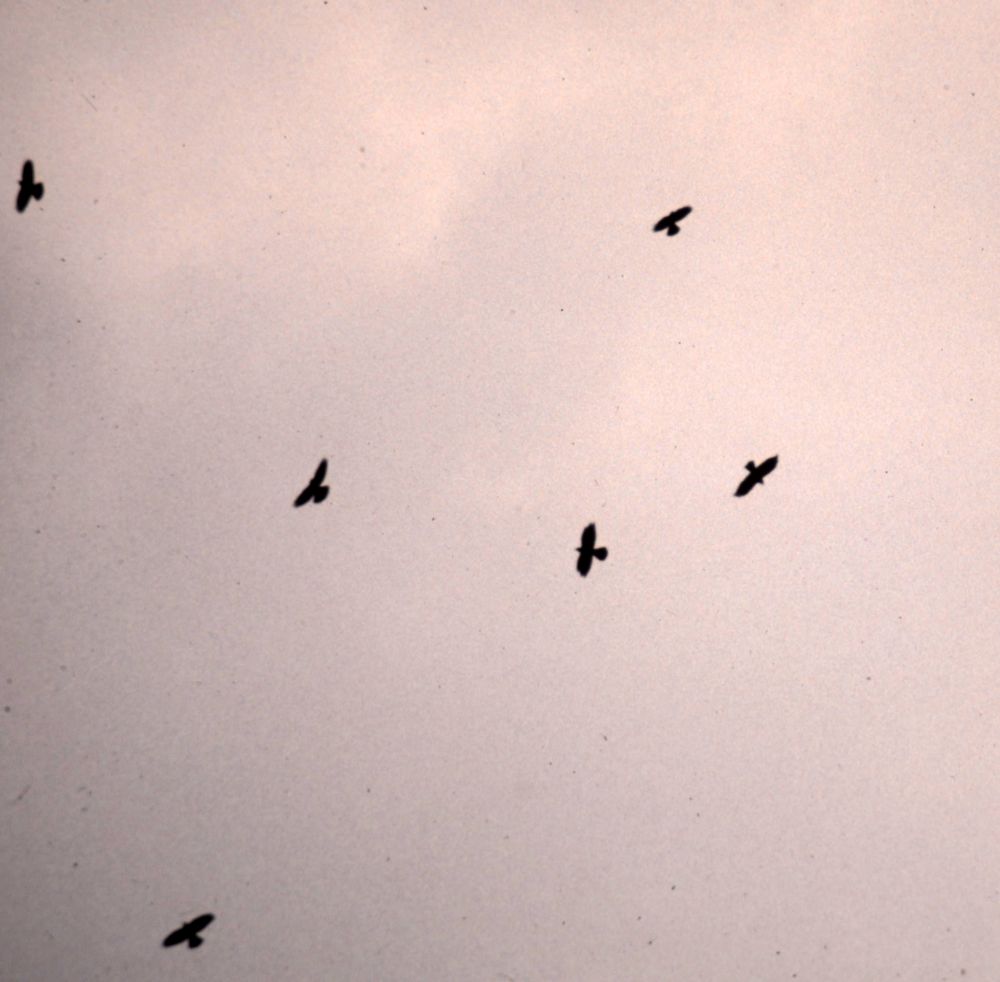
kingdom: Animalia
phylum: Chordata
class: Aves
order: Passeriformes
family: Corvidae
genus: Pyrrhocorax
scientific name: Pyrrhocorax graculus
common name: Alpine chough
